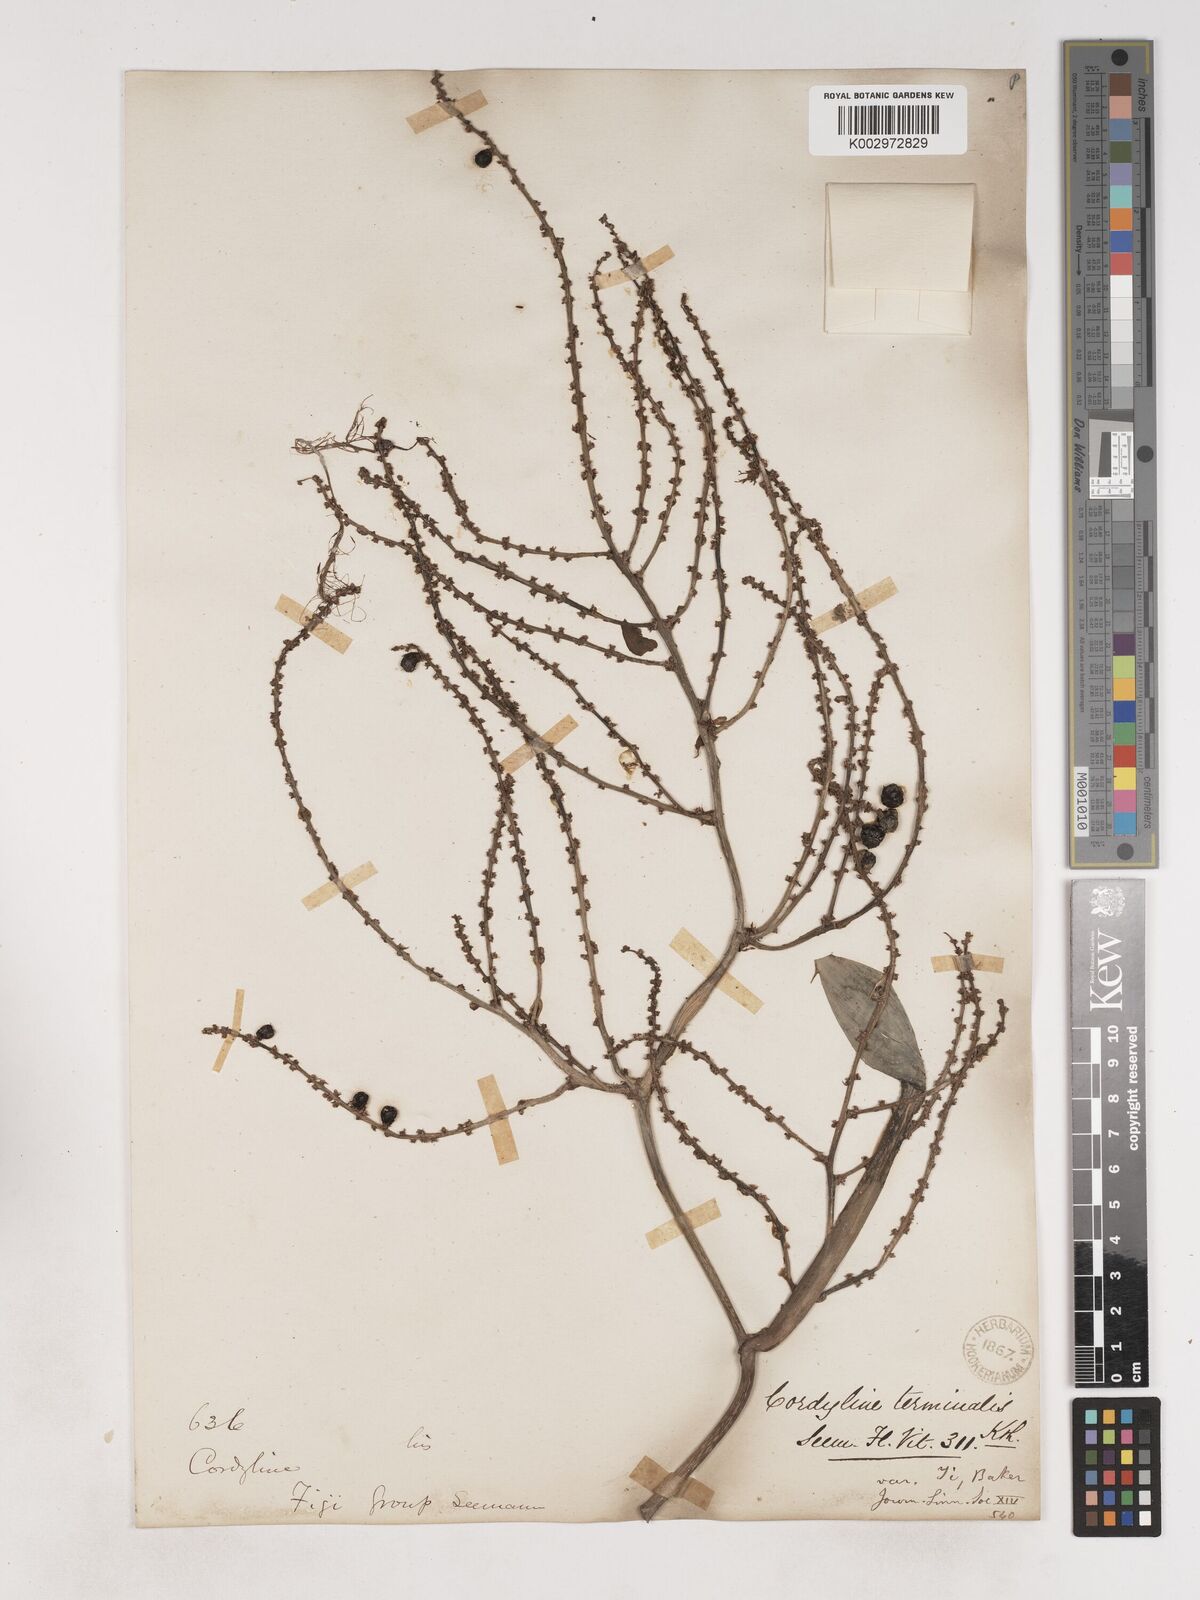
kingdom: Plantae
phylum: Tracheophyta
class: Liliopsida
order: Asparagales
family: Asparagaceae
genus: Cordyline
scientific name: Cordyline fruticosa
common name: Good-luck-plant
